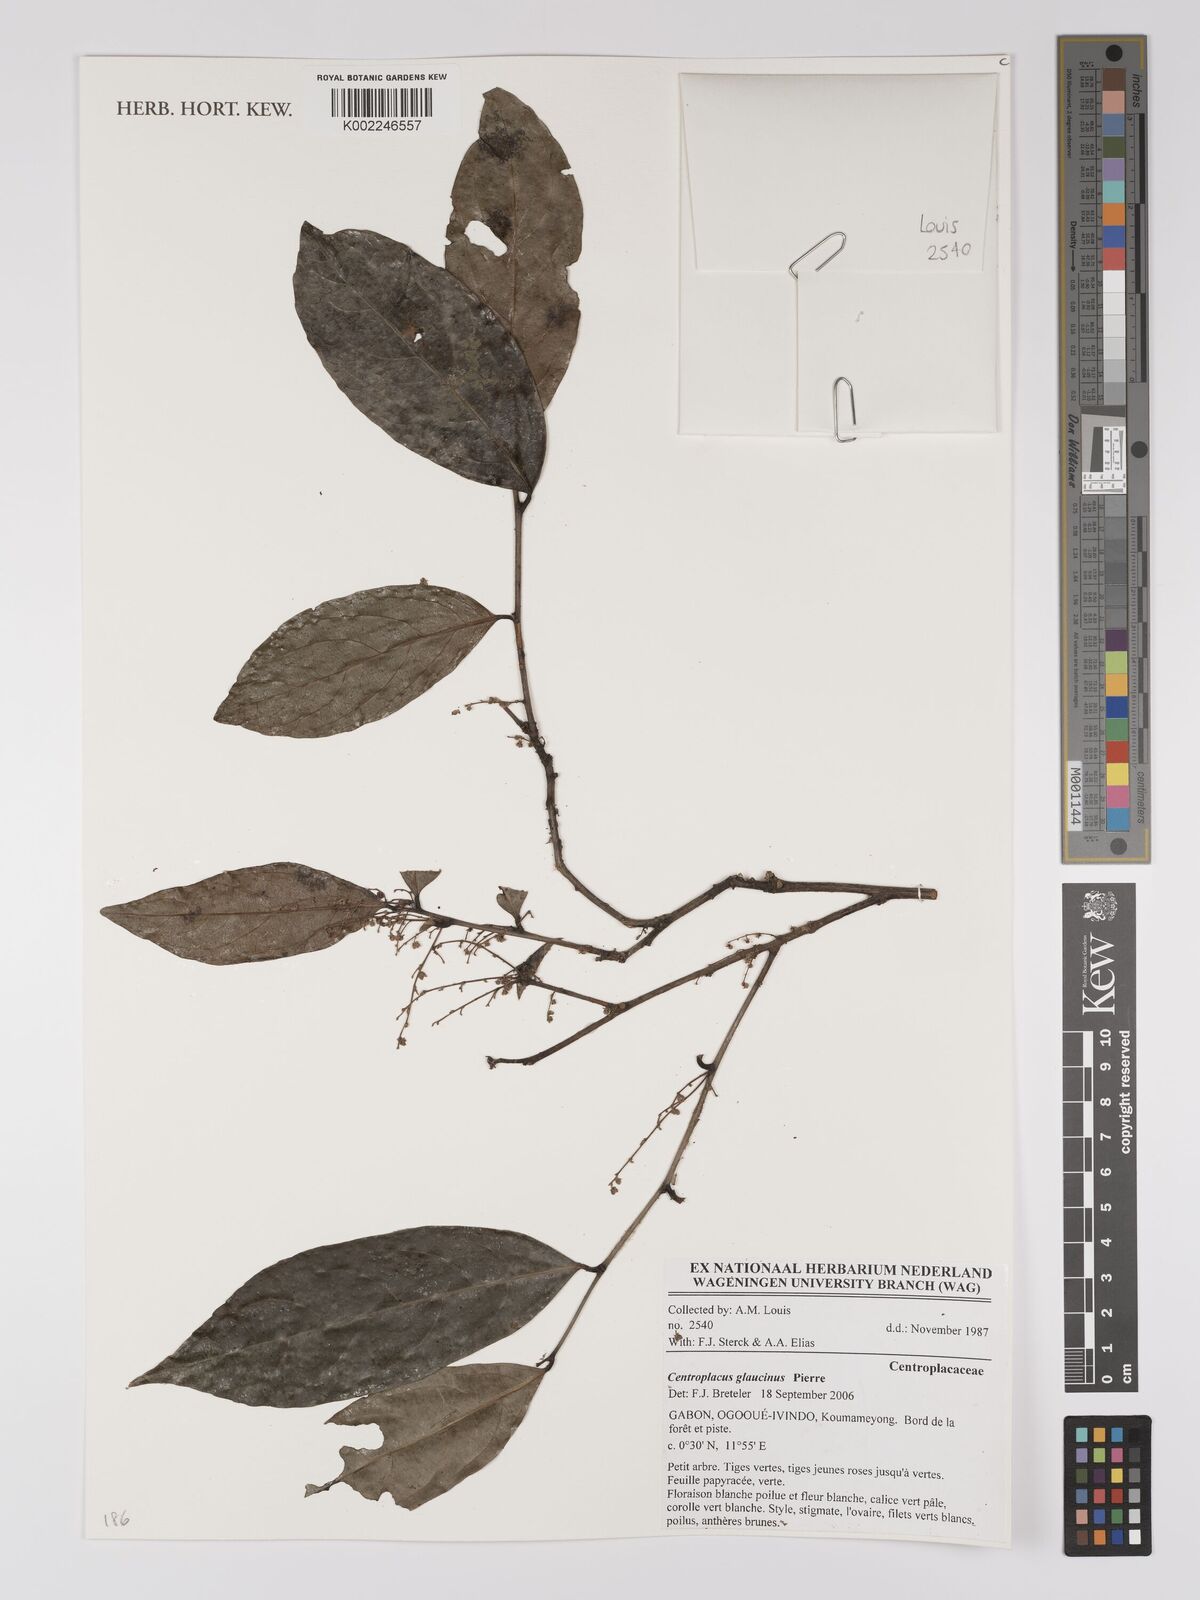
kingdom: Plantae
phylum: Tracheophyta
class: Magnoliopsida
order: Malpighiales
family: Centroplacaceae
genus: Centroplacus
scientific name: Centroplacus glaucinus
